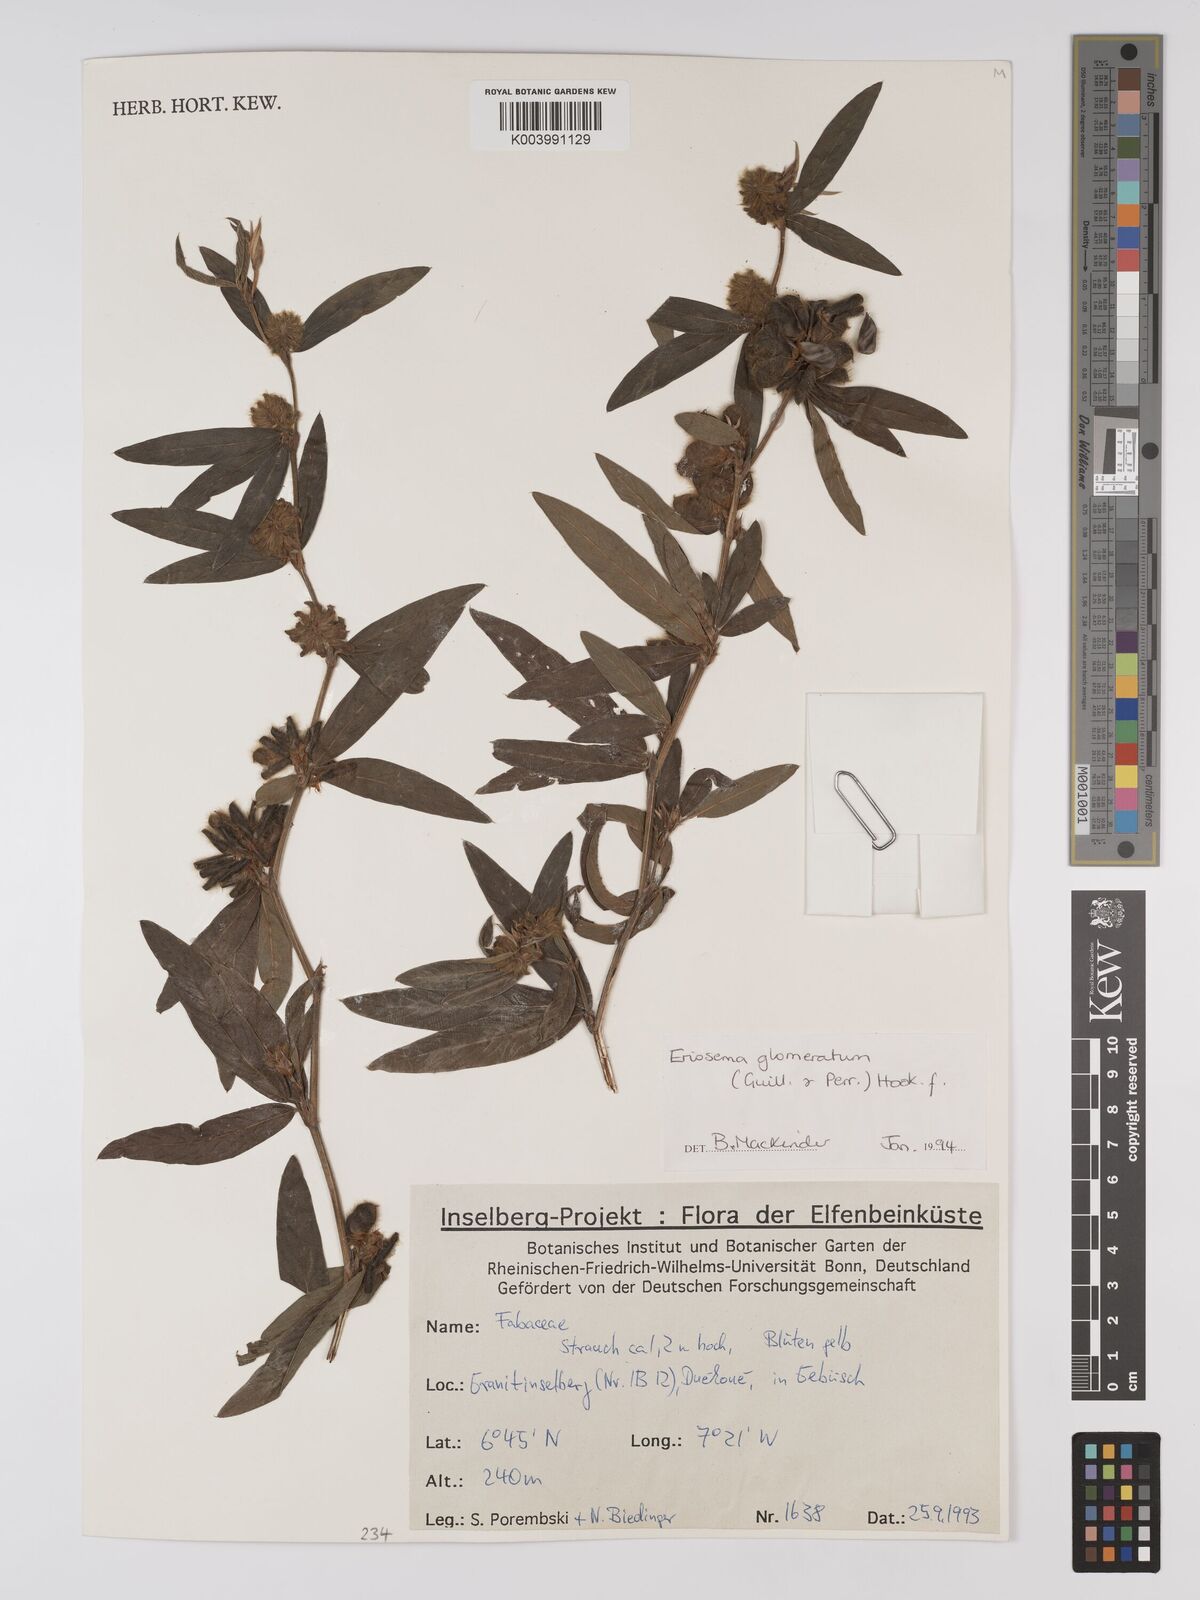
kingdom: Plantae
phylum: Tracheophyta
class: Magnoliopsida
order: Fabales
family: Fabaceae
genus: Eriosema
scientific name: Eriosema glomeratum
